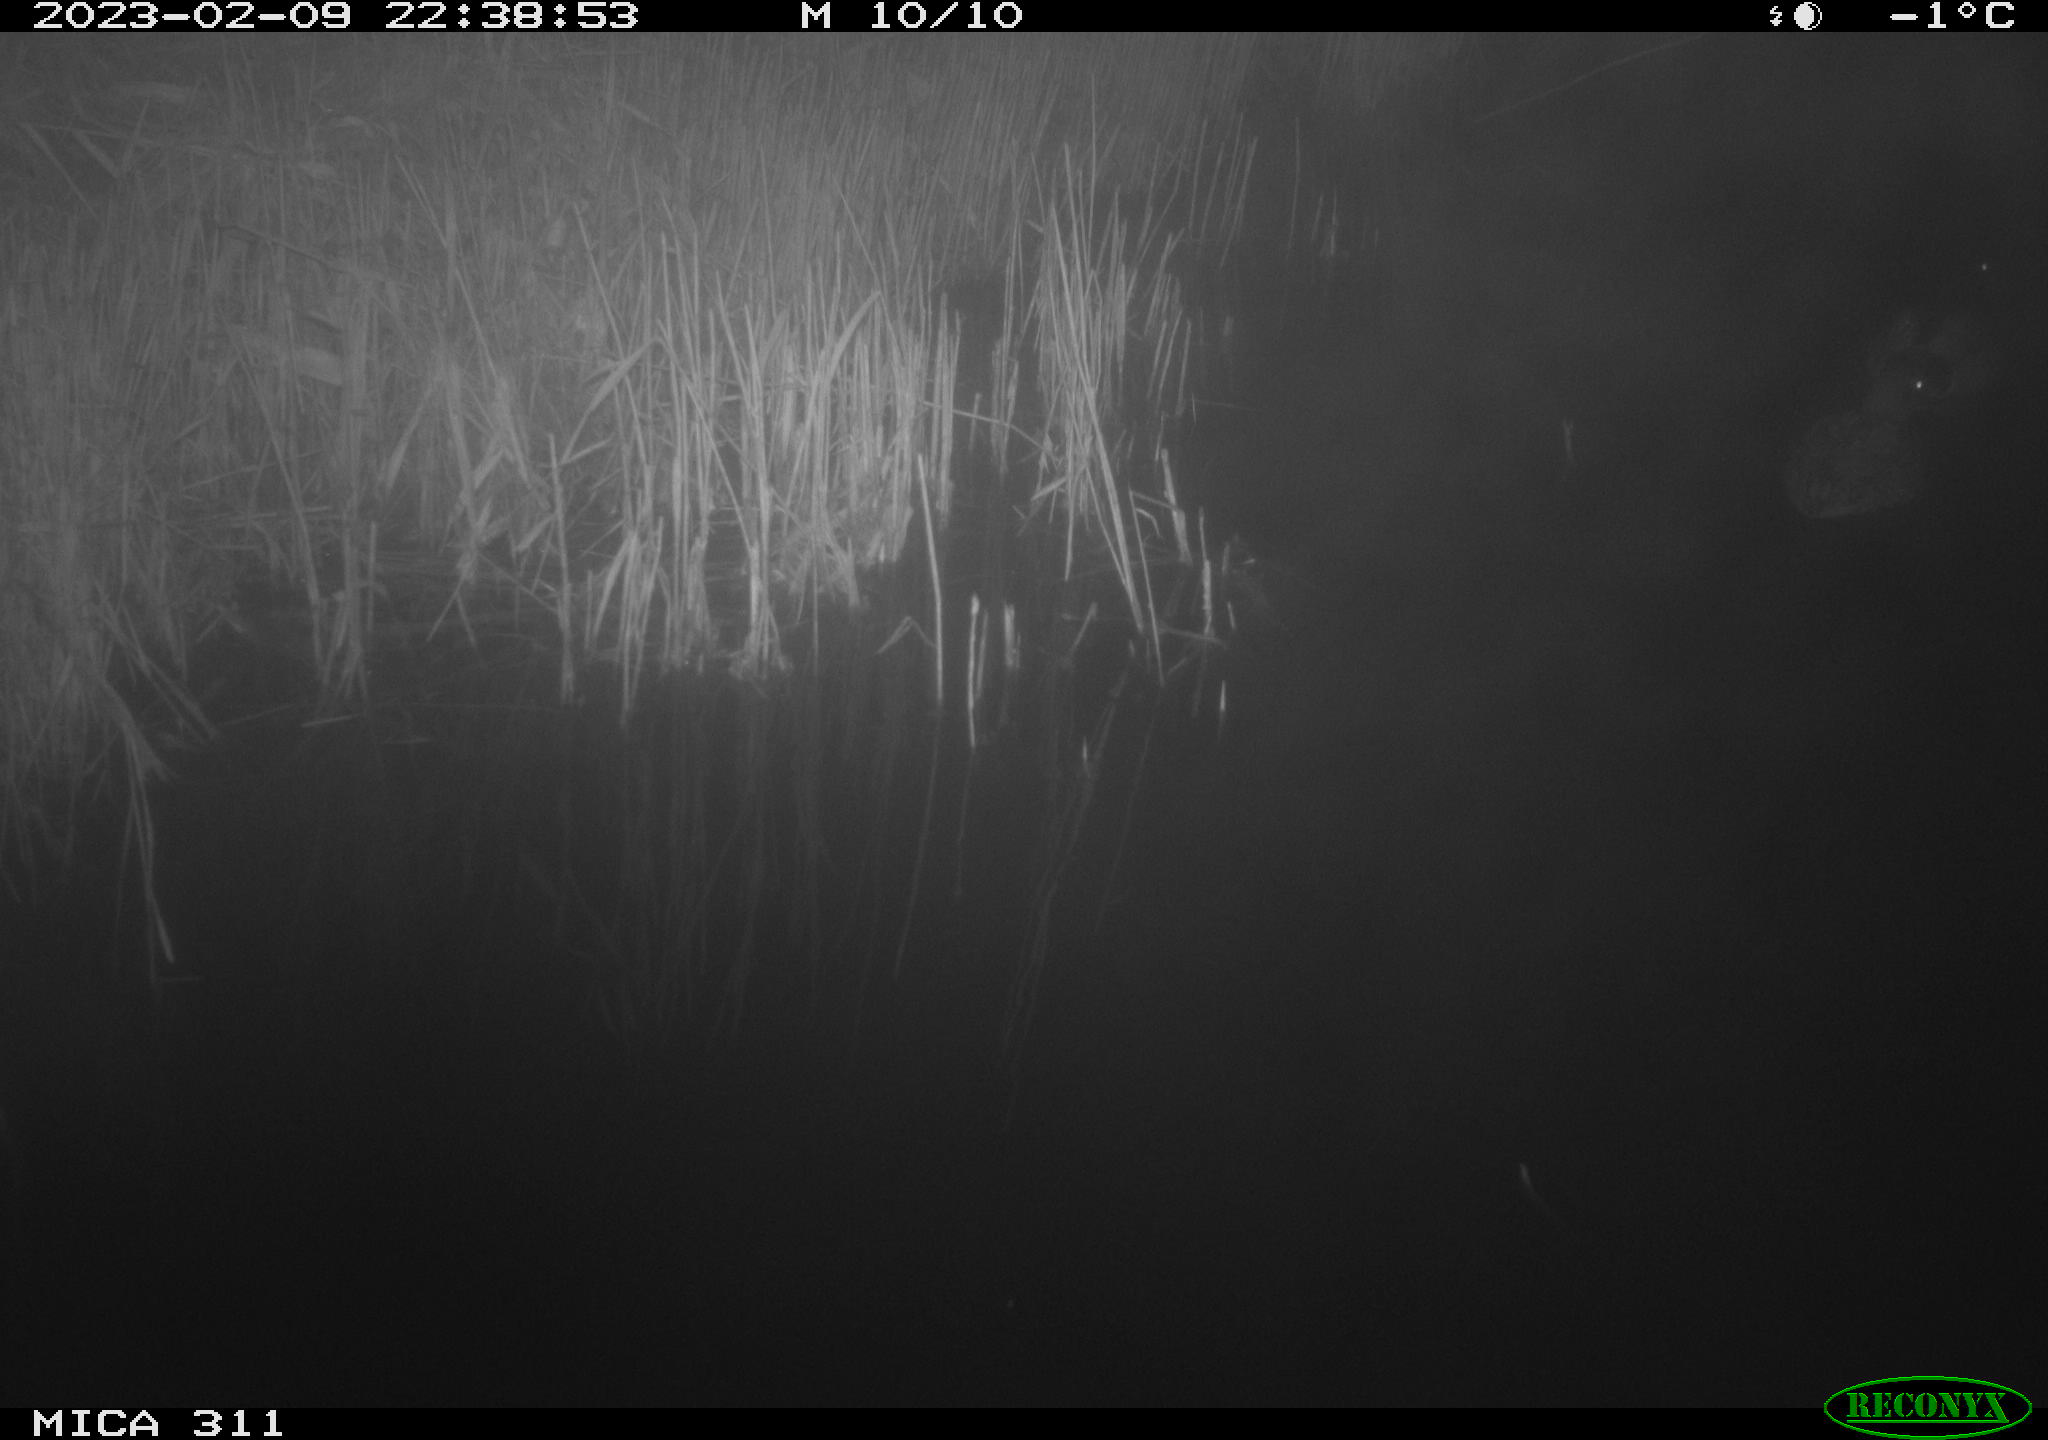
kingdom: Animalia
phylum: Chordata
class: Aves
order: Anseriformes
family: Anatidae
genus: Anas
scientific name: Anas
